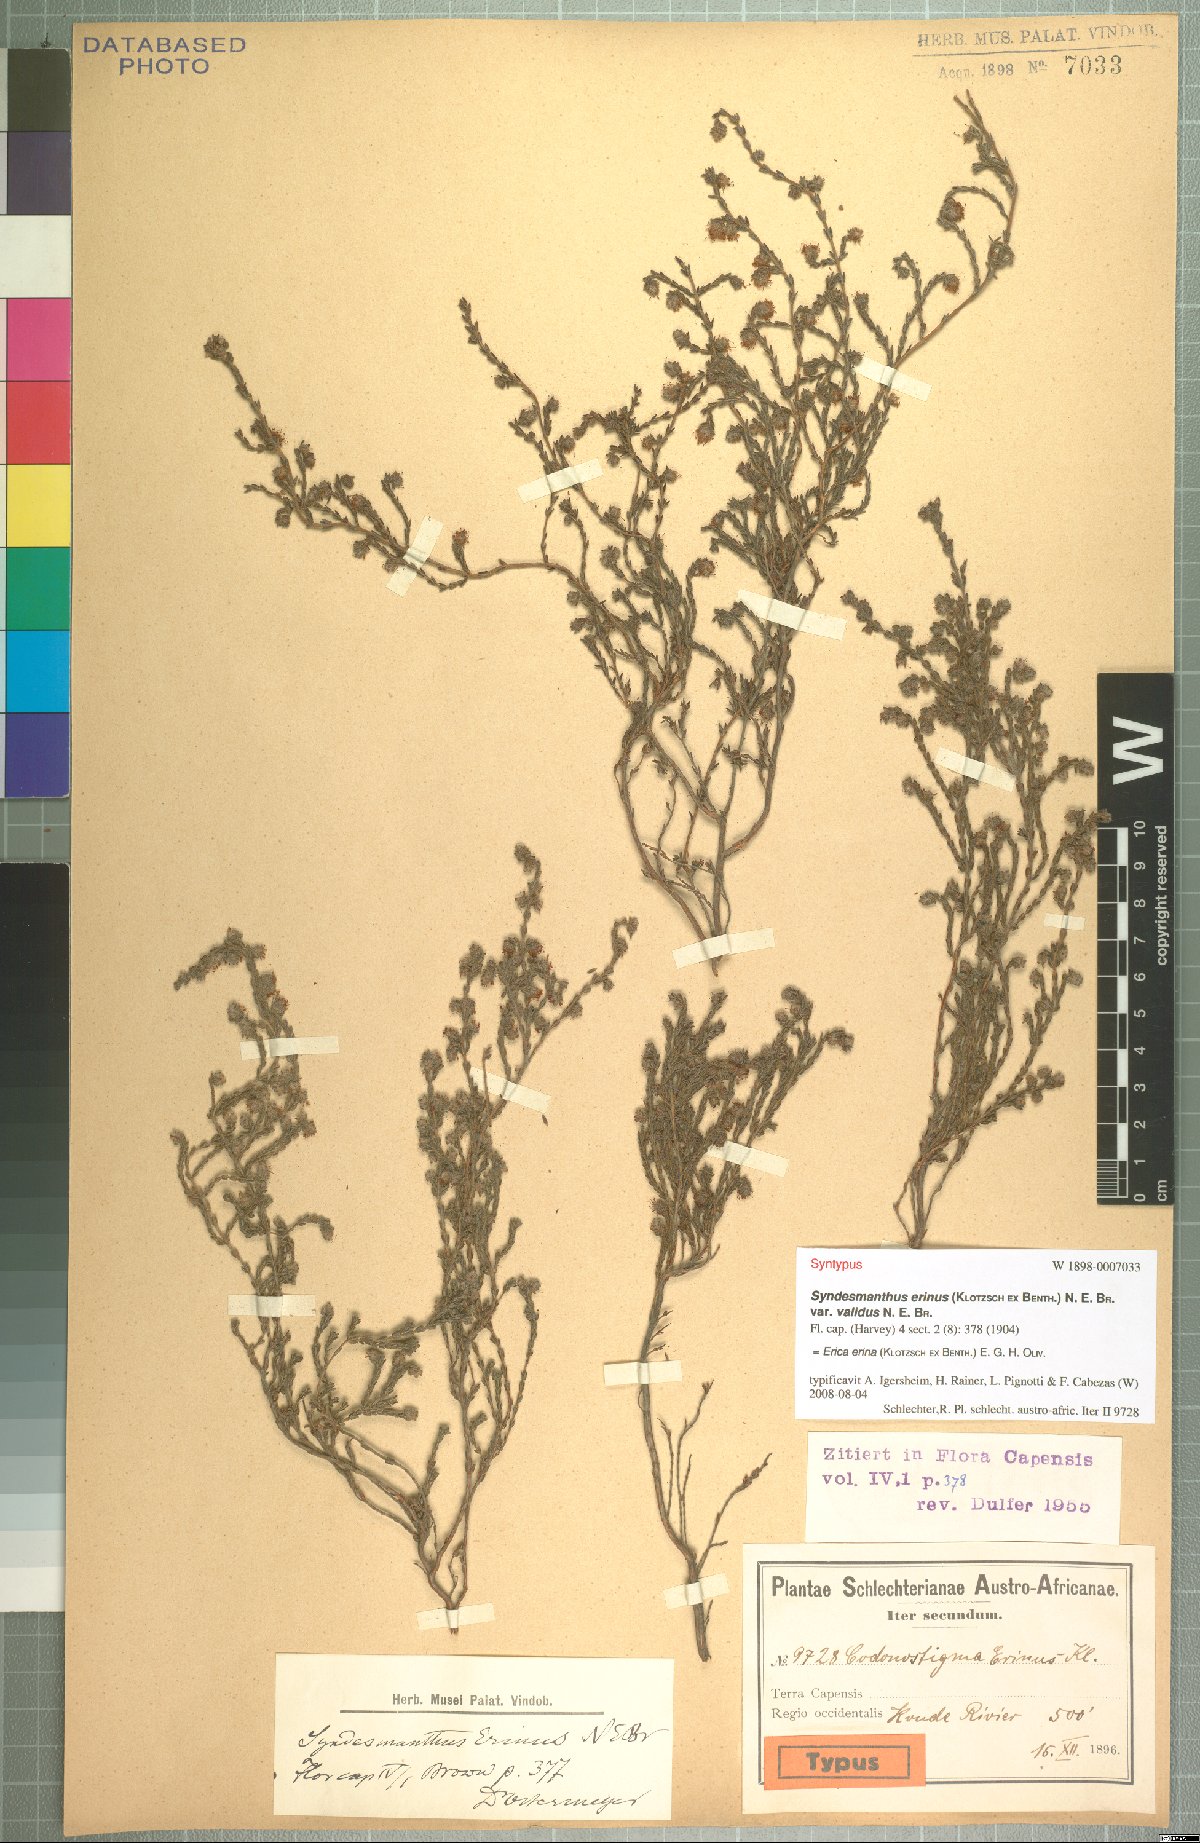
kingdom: Plantae
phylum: Tracheophyta
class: Magnoliopsida
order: Ericales
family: Ericaceae
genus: Erica
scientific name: Erica erinus
